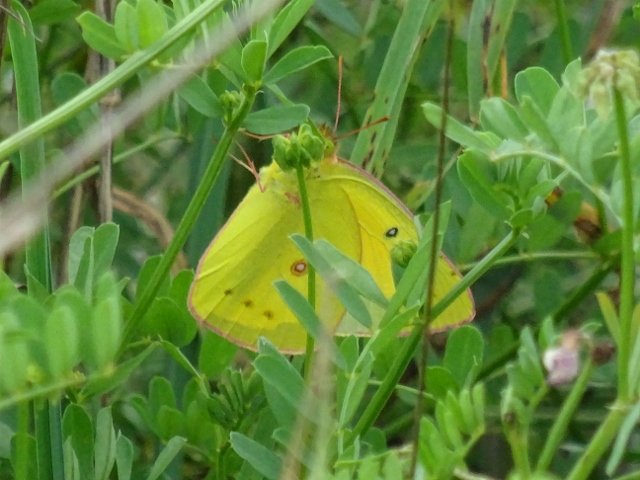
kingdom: Animalia
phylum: Arthropoda
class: Insecta
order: Lepidoptera
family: Pieridae
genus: Colias
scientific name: Colias eurytheme
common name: Orange Sulphur
